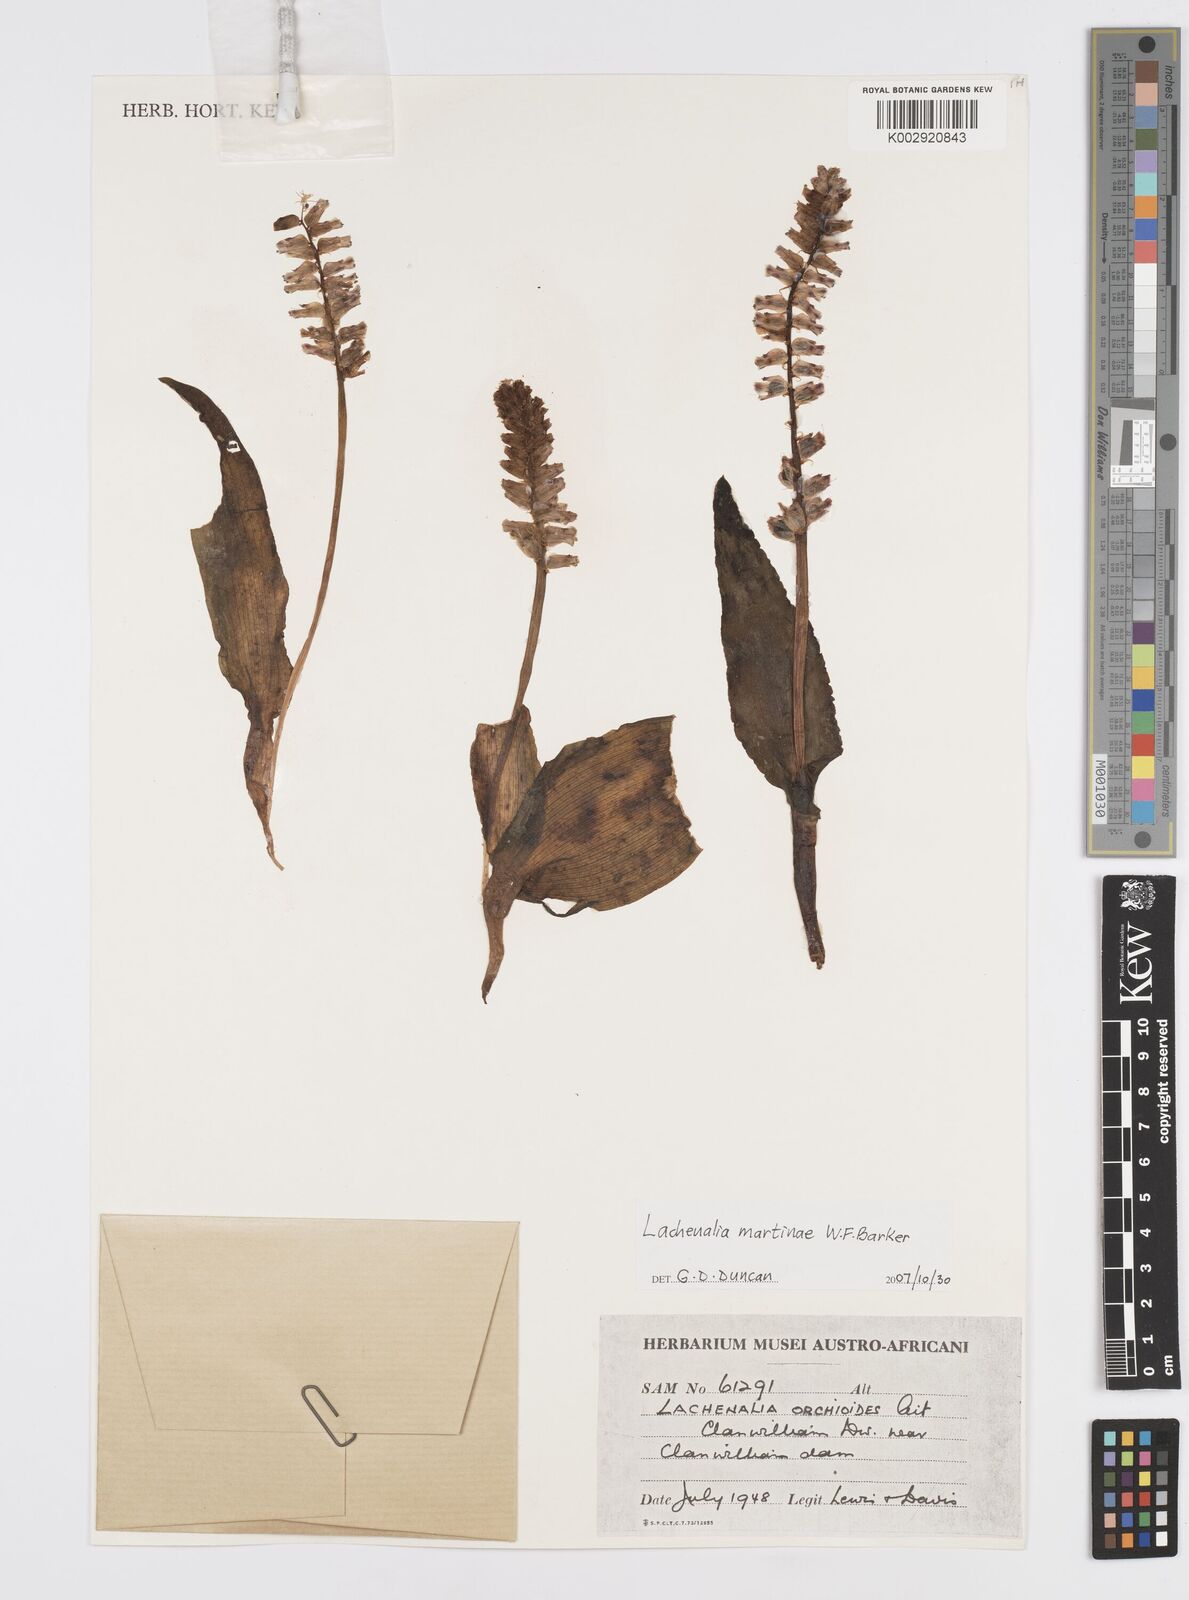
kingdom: Plantae
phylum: Tracheophyta
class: Liliopsida
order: Asparagales
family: Asparagaceae
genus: Lachenalia
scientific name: Lachenalia martiniae
